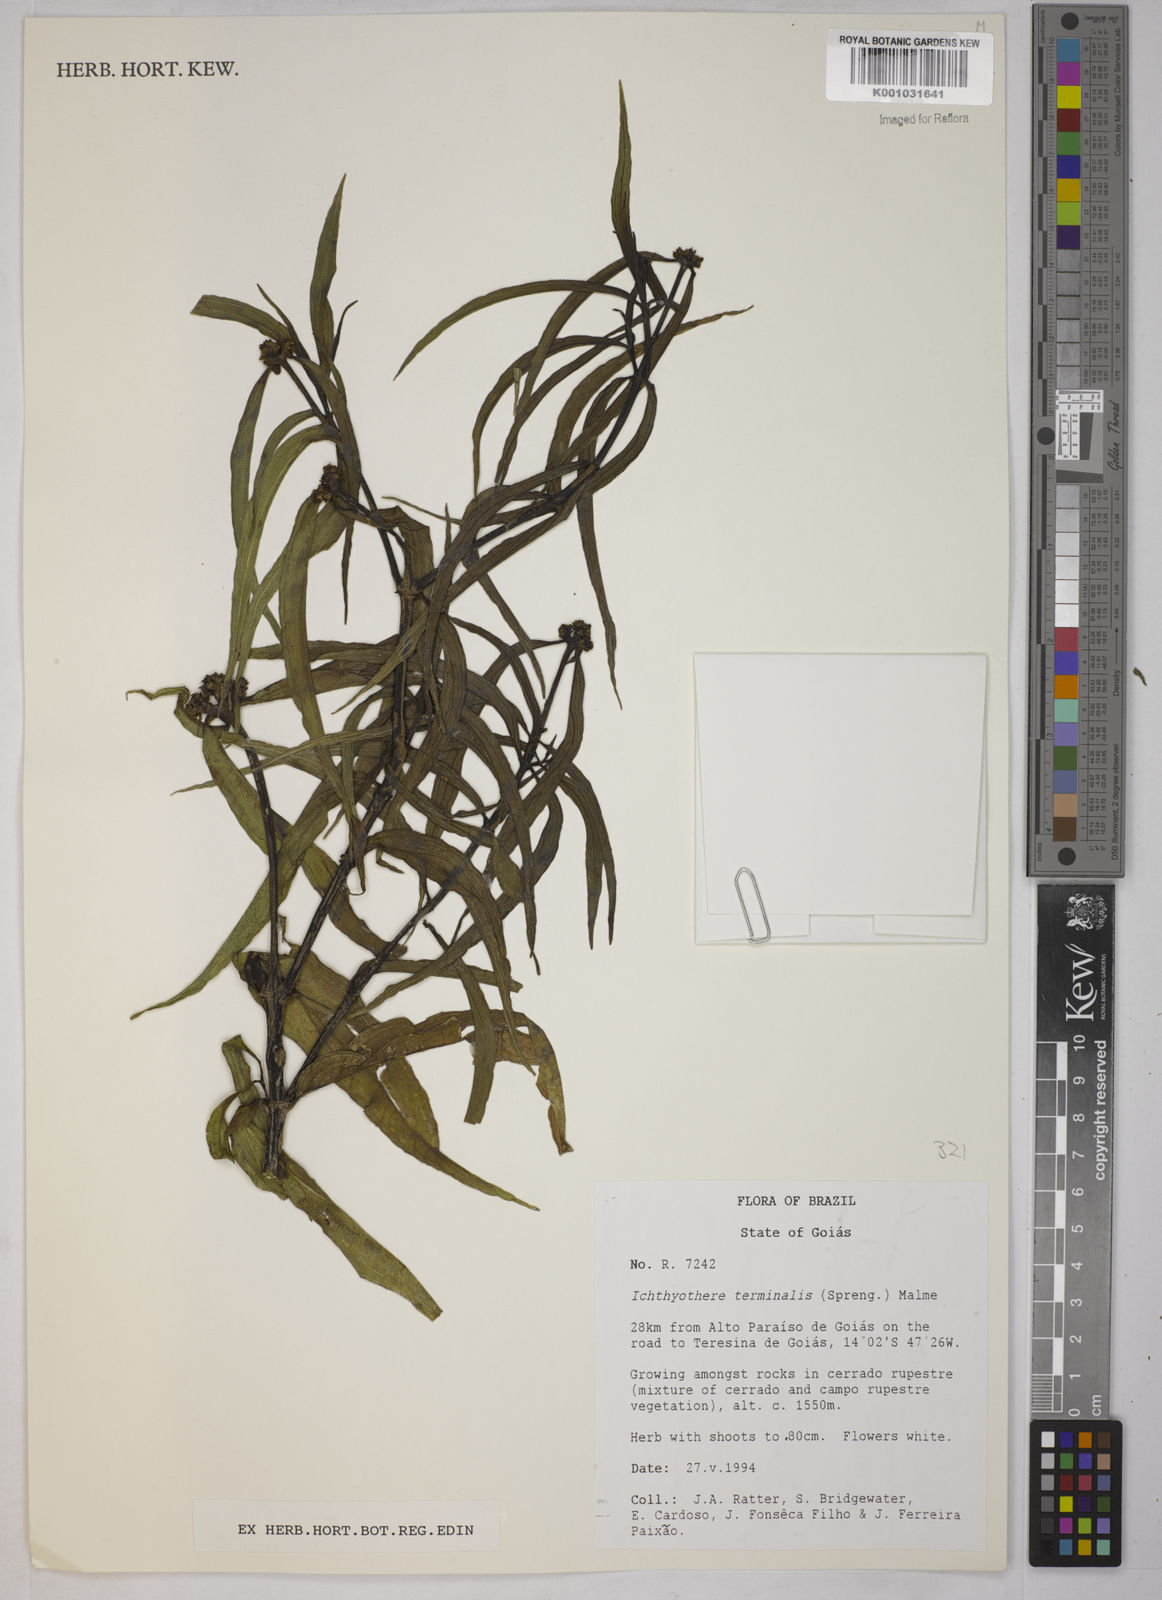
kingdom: Plantae
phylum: Tracheophyta
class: Magnoliopsida
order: Asterales
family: Asteraceae
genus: Ichthyothere
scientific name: Ichthyothere terminalis
